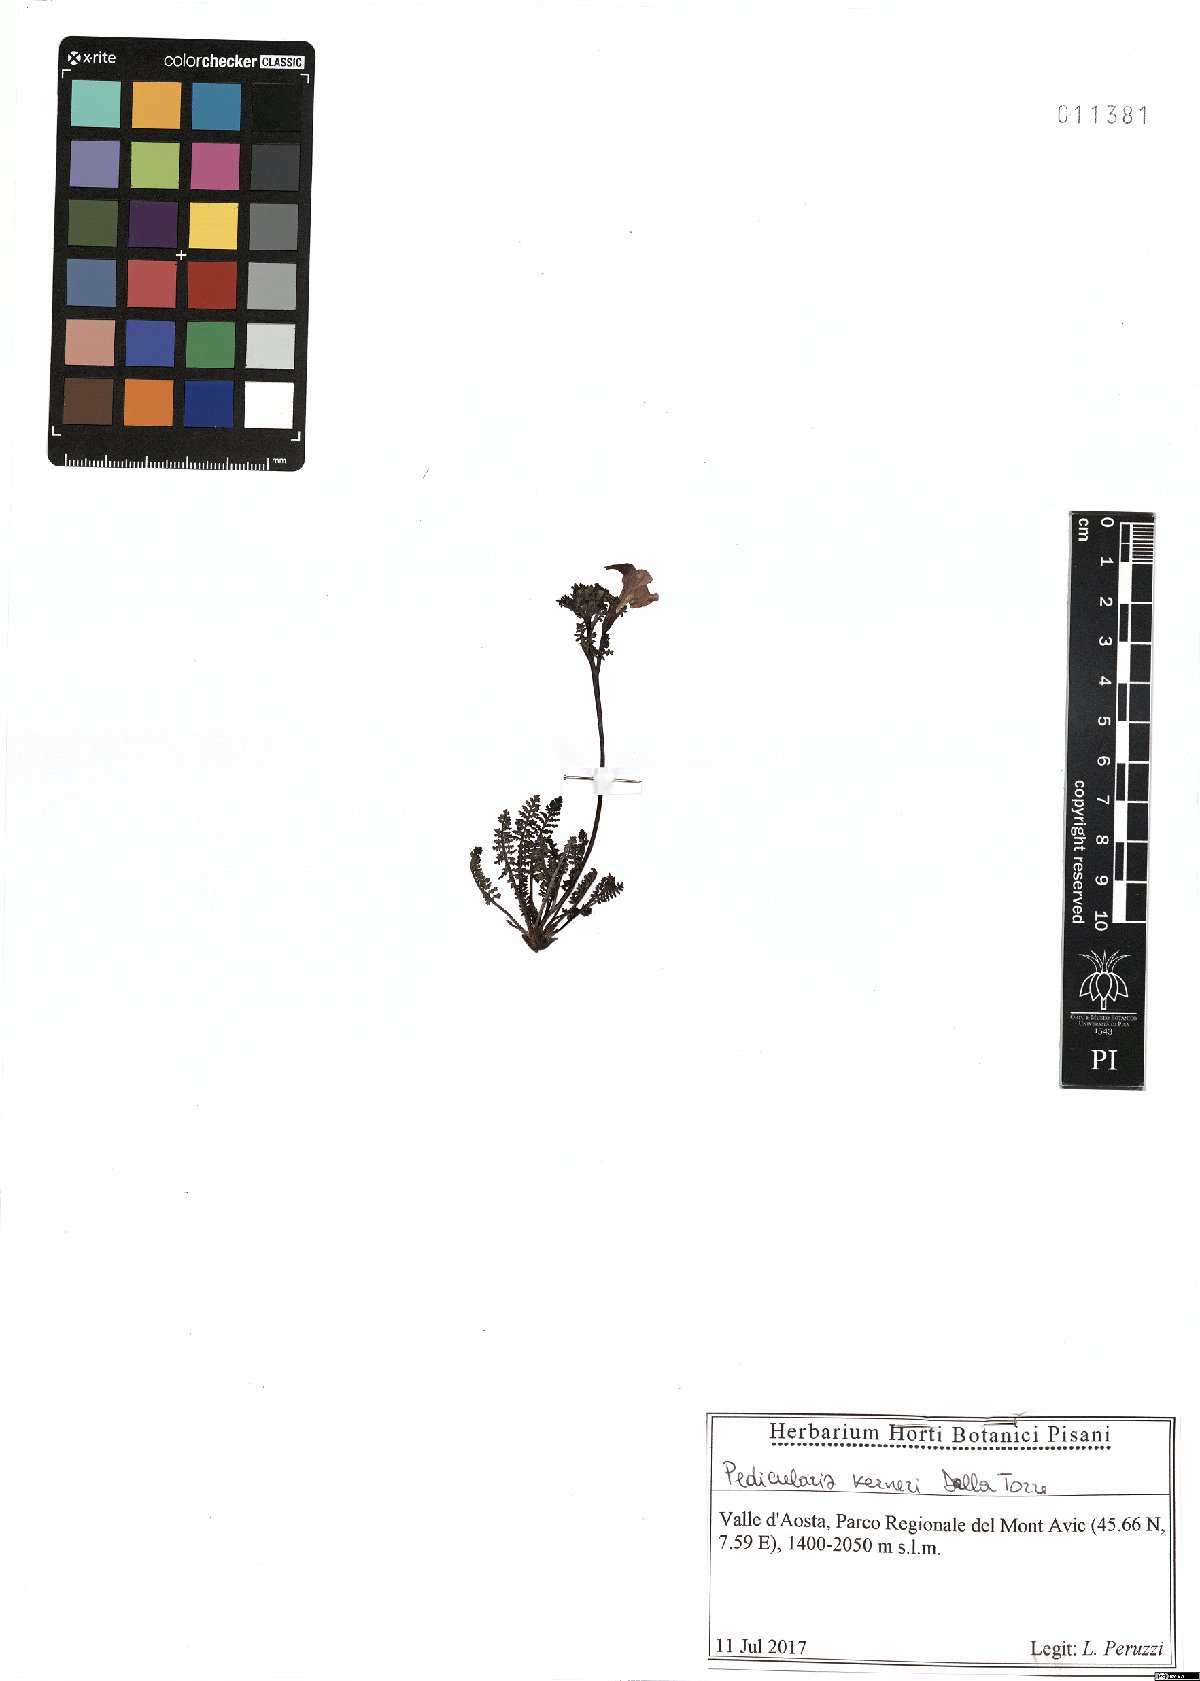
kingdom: Plantae
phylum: Tracheophyta
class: Magnoliopsida
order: Lamiales
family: Orobanchaceae
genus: Pedicularis
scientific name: Pedicularis kerneri
